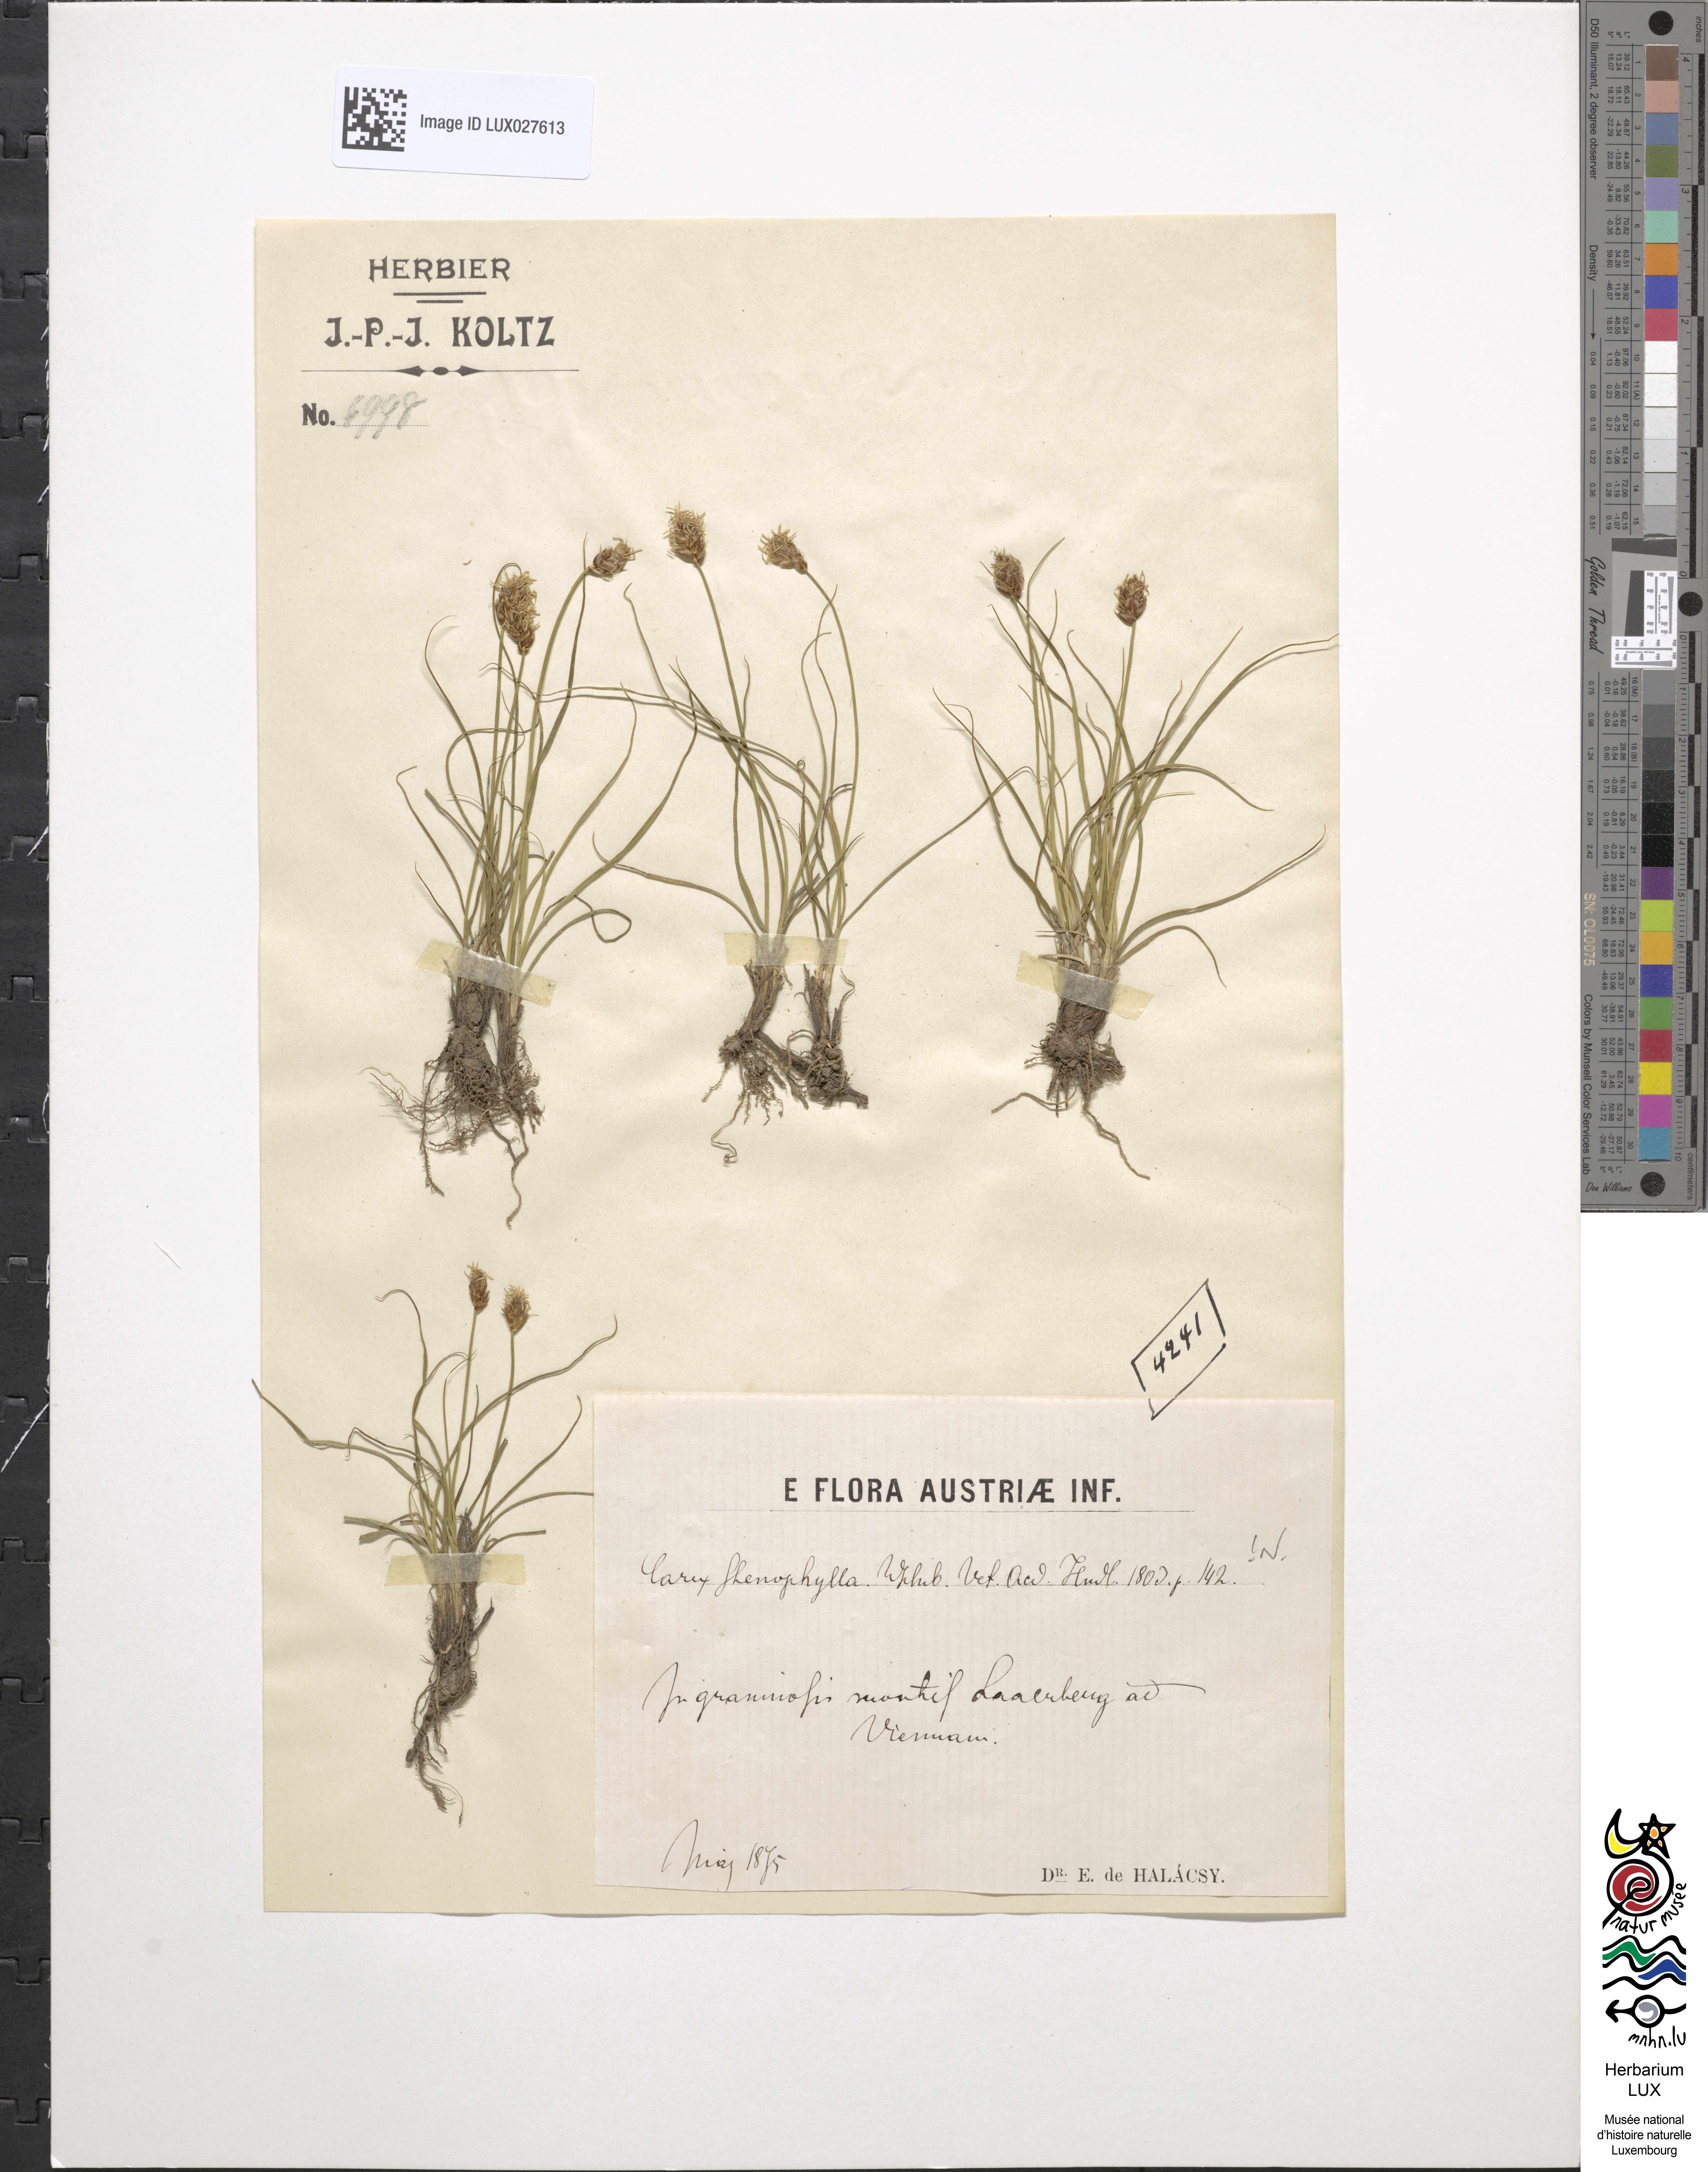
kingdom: Plantae
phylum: Tracheophyta
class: Liliopsida
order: Poales
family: Cyperaceae
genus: Carex
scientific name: Carex stenophylla
